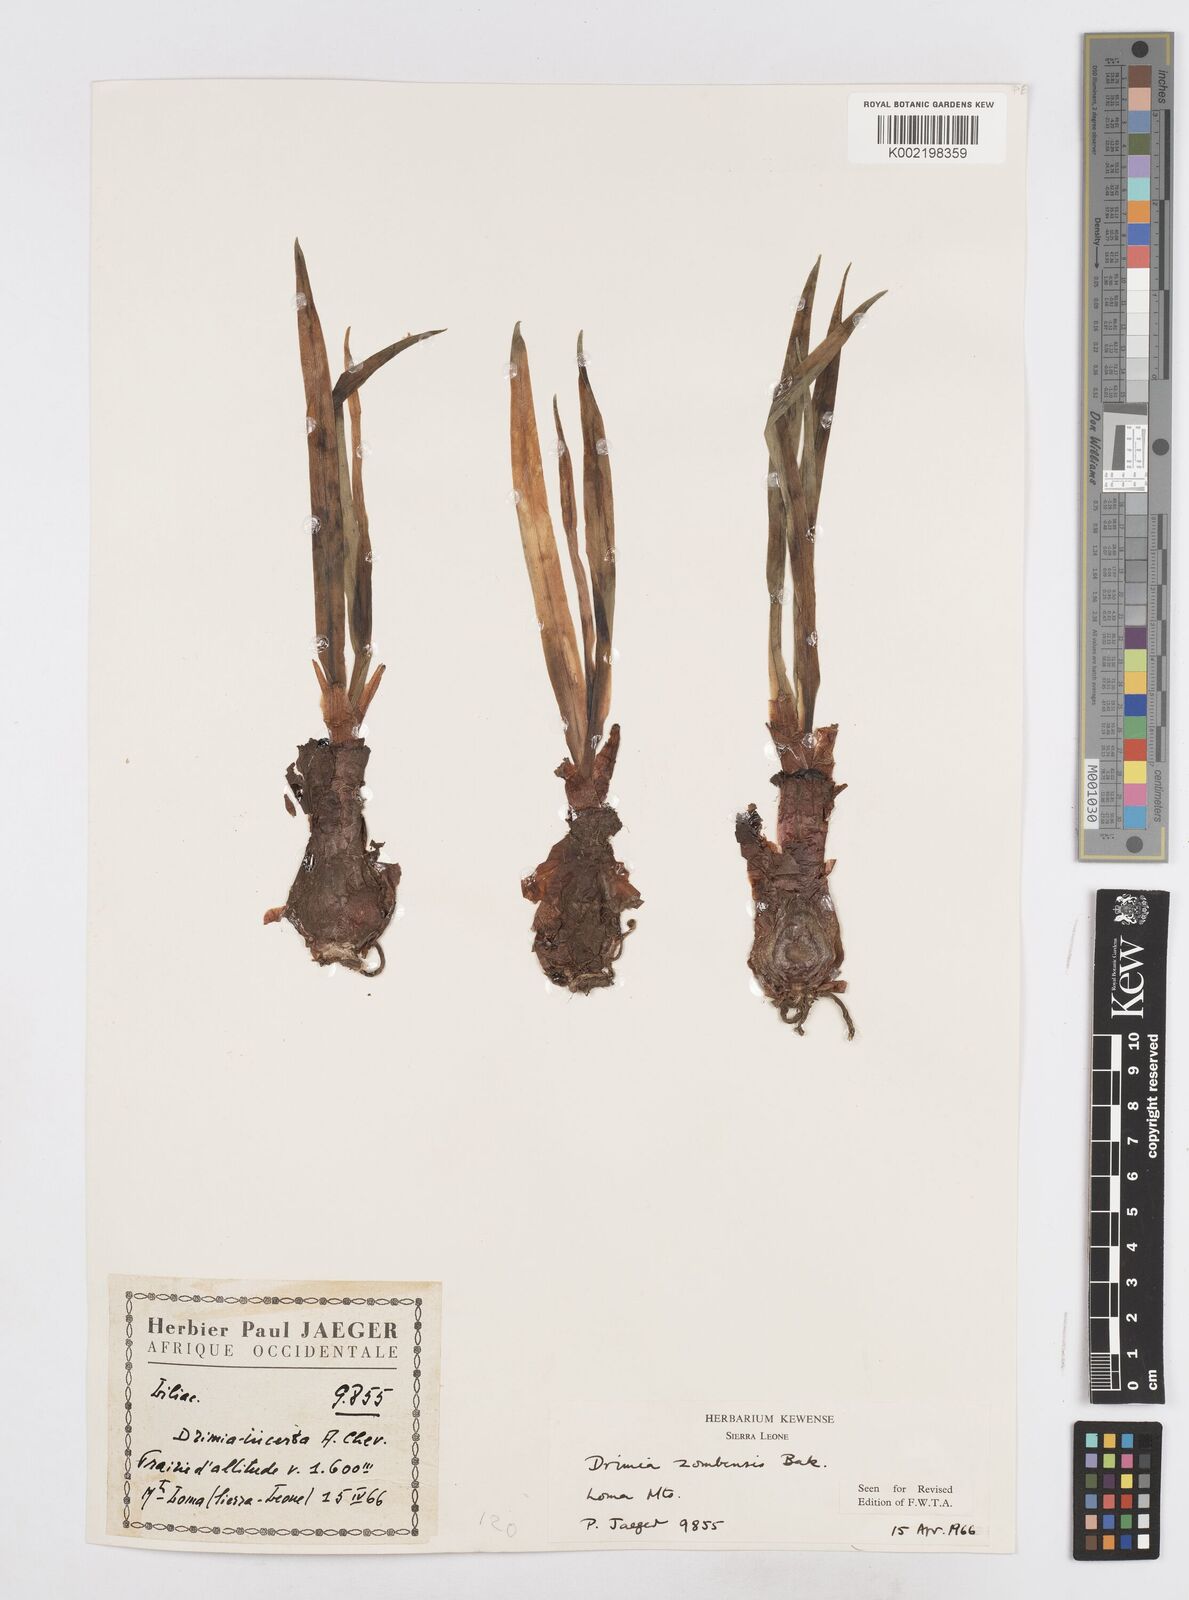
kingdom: Plantae
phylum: Tracheophyta
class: Liliopsida
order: Asparagales
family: Asparagaceae
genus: Drimia
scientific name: Drimia elata
